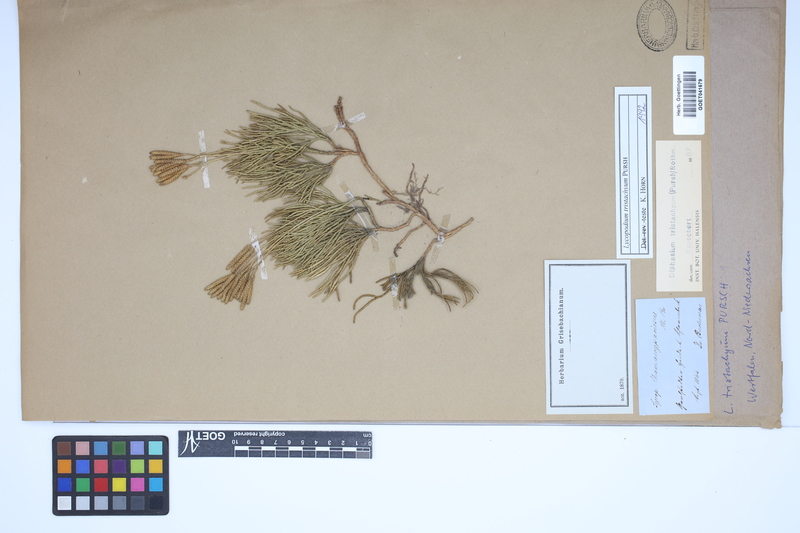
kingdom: Plantae
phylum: Tracheophyta
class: Lycopodiopsida
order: Lycopodiales
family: Lycopodiaceae
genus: Diphasiastrum
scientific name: Diphasiastrum tristachyum
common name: Blue ground-cedar
